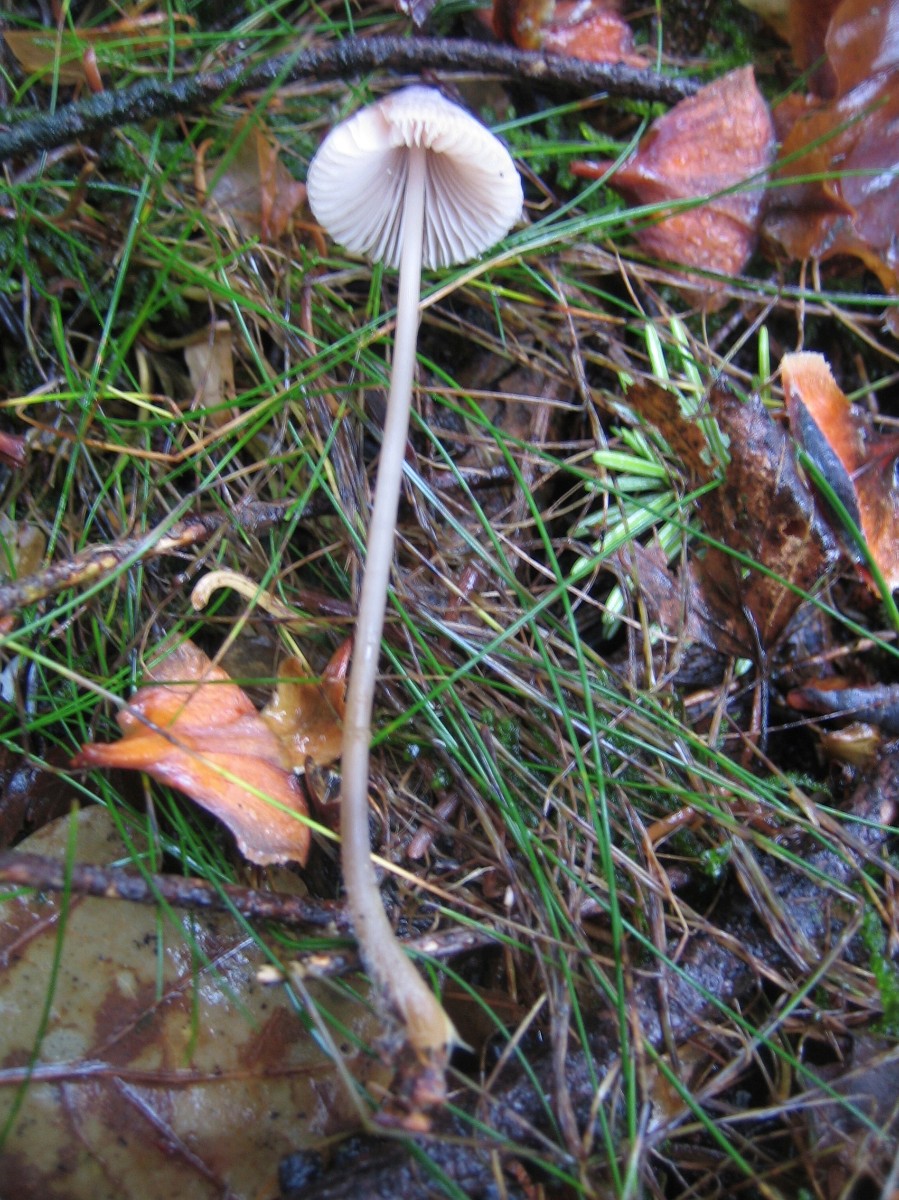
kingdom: Fungi
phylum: Basidiomycota
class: Agaricomycetes
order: Agaricales
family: Mycenaceae
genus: Mycena
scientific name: Mycena metata
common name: rødlig huesvamp
